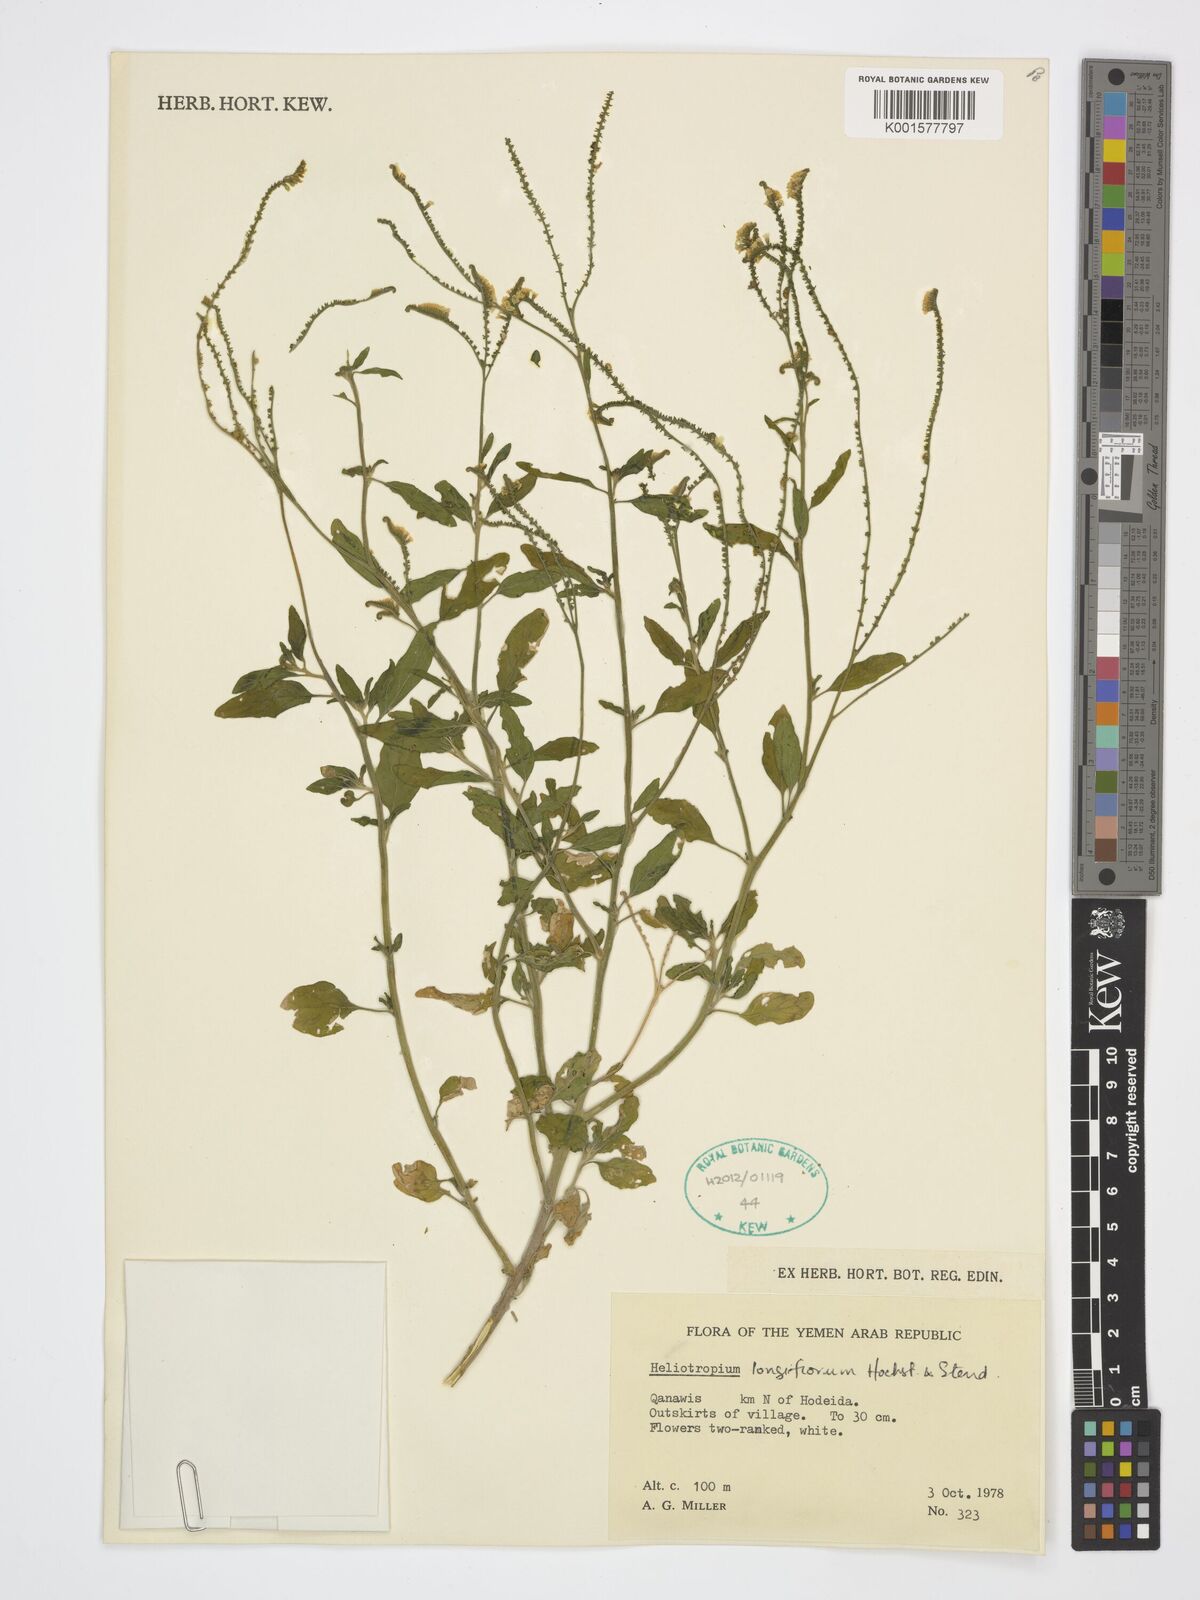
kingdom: Plantae
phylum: Tracheophyta
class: Magnoliopsida
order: Boraginales
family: Heliotropiaceae
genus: Heliotropium
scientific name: Heliotropium longiflorum
